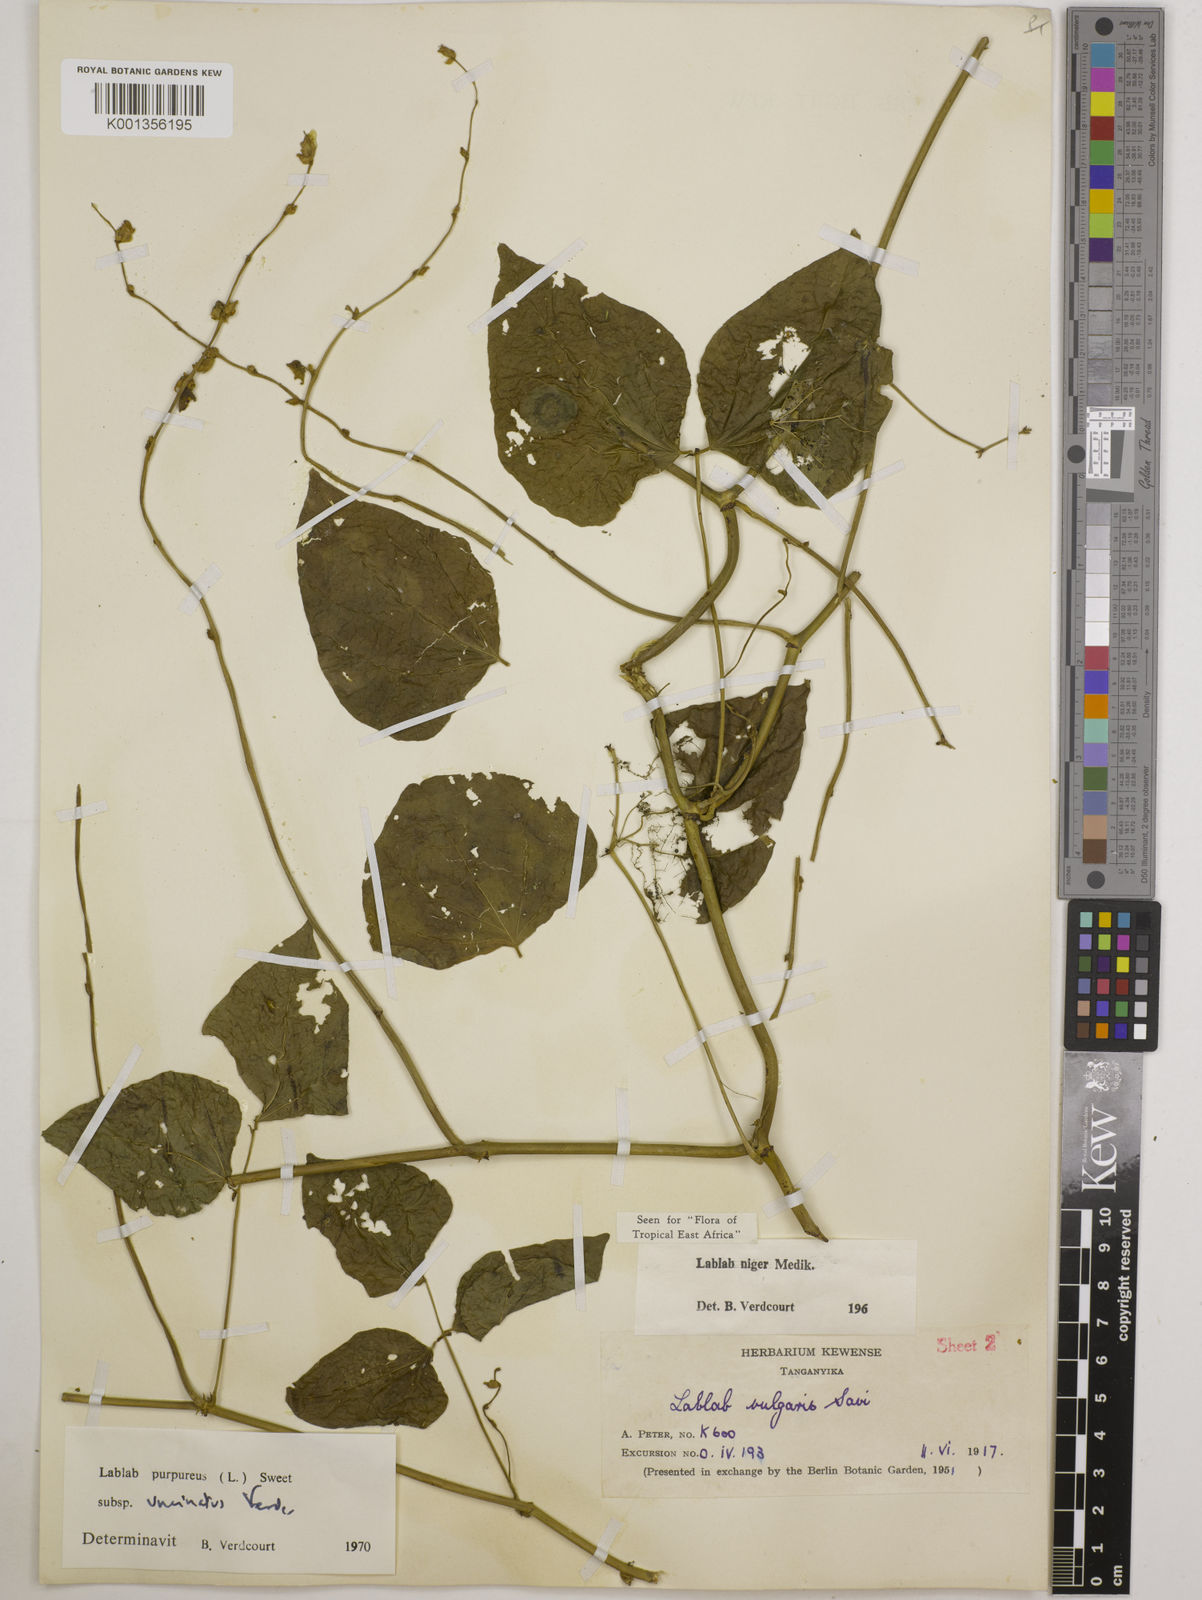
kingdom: Plantae
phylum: Tracheophyta
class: Magnoliopsida
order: Fabales
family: Fabaceae
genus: Lablab
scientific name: Lablab purpureus
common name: Lablab-bean
